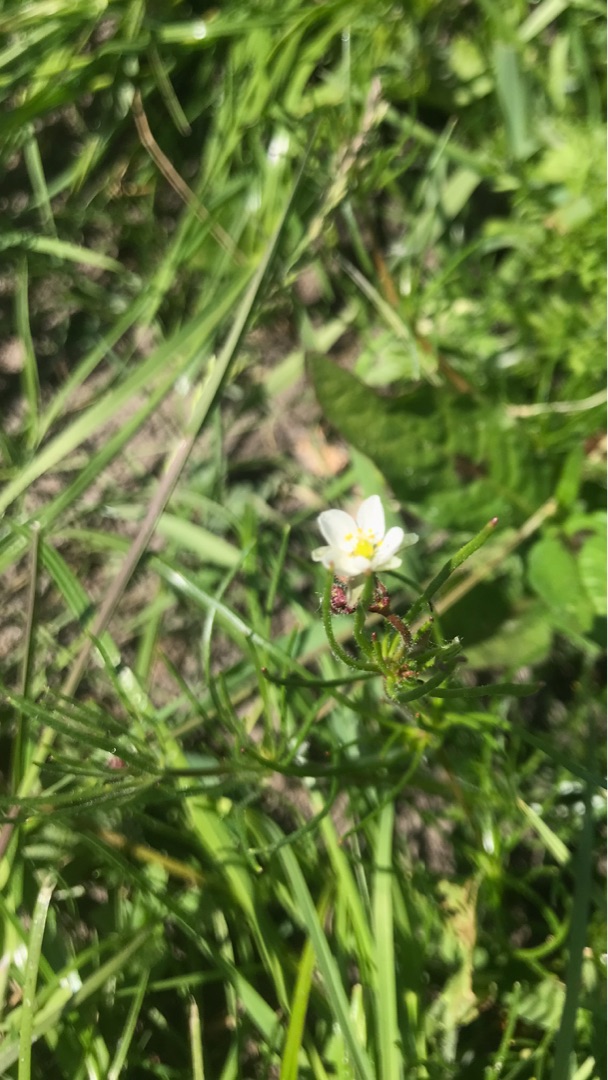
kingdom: Plantae
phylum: Tracheophyta
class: Magnoliopsida
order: Caryophyllales
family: Caryophyllaceae
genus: Spergula
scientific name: Spergula arvensis
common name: Almindelig spergel
